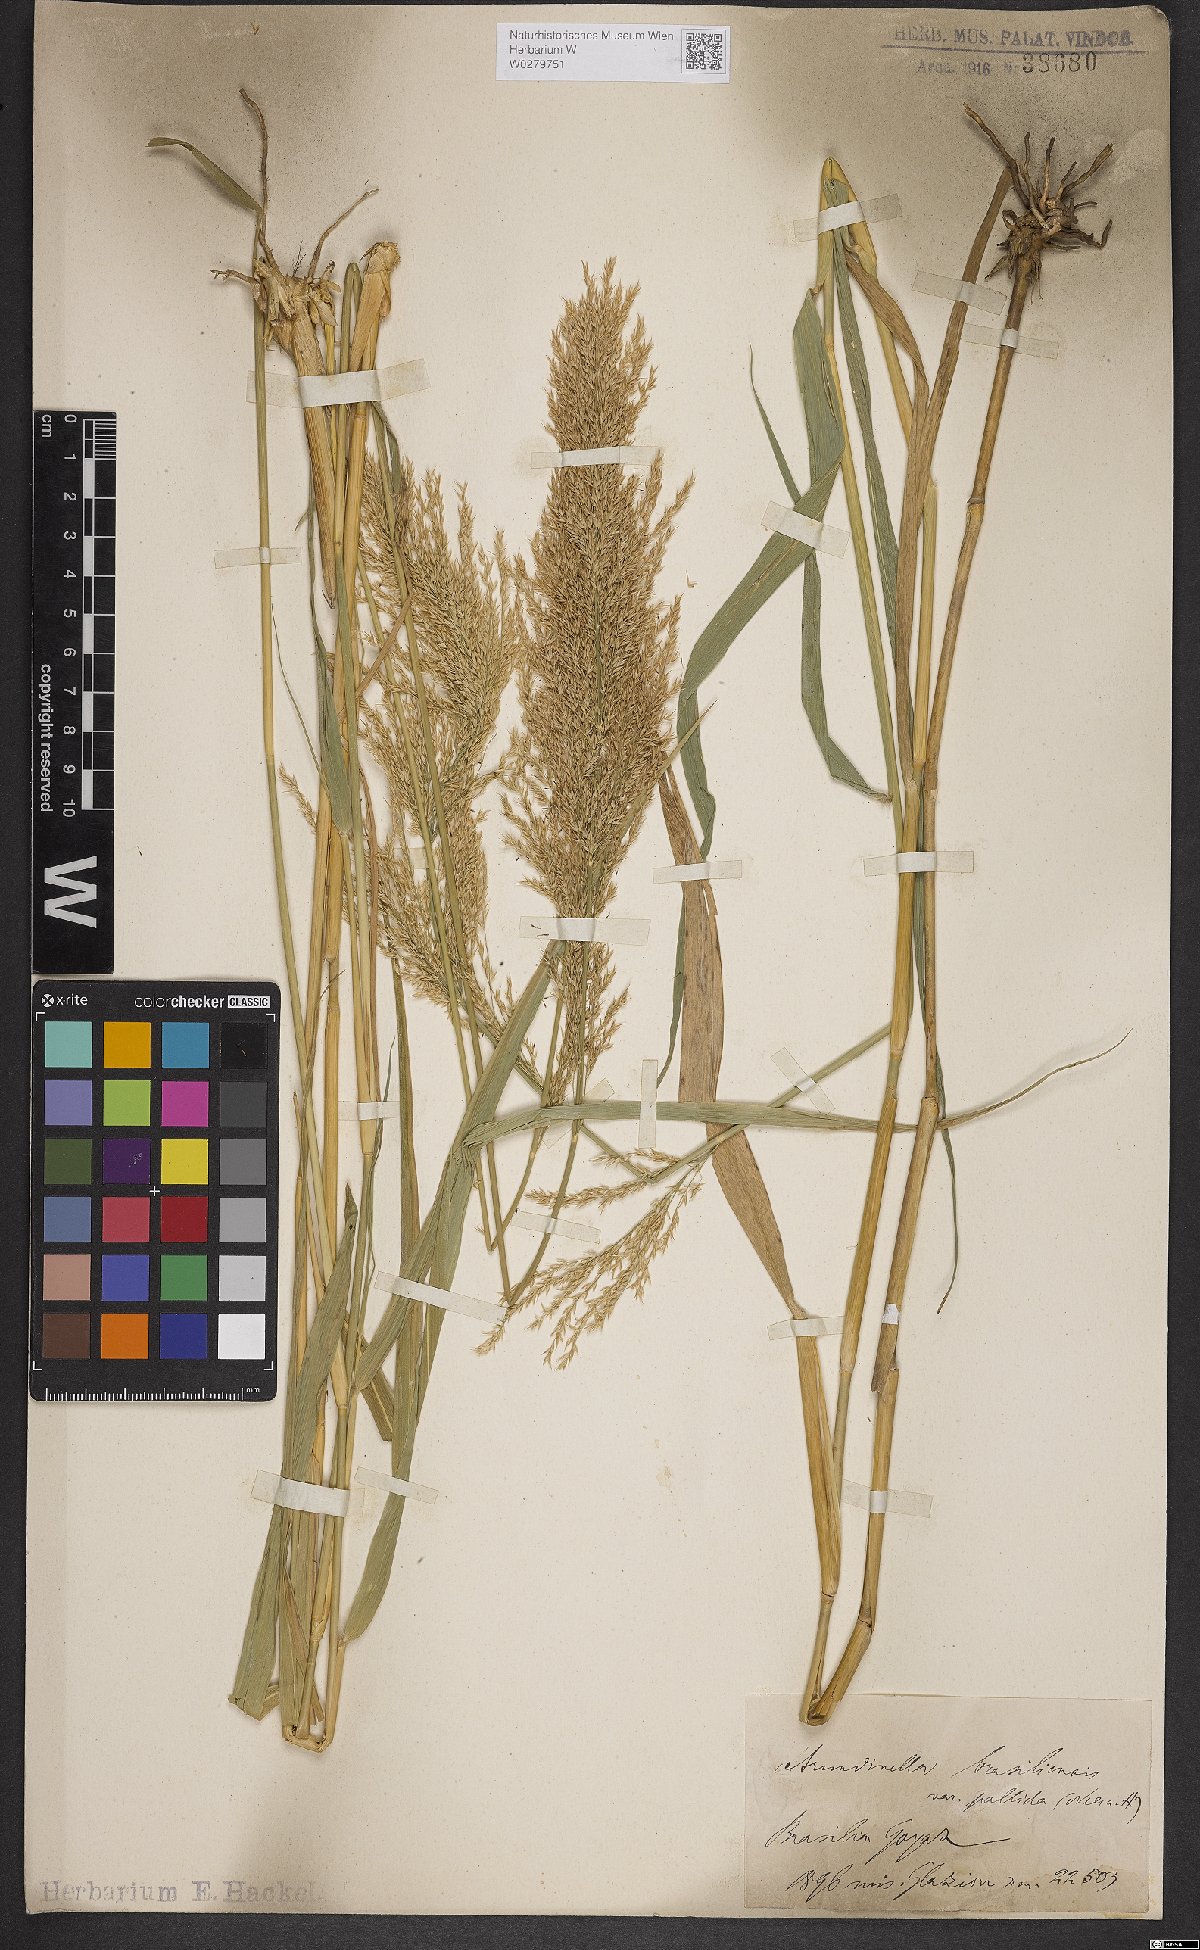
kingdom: Plantae
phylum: Tracheophyta
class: Liliopsida
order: Poales
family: Poaceae
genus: Arundinella
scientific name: Arundinella hispida
